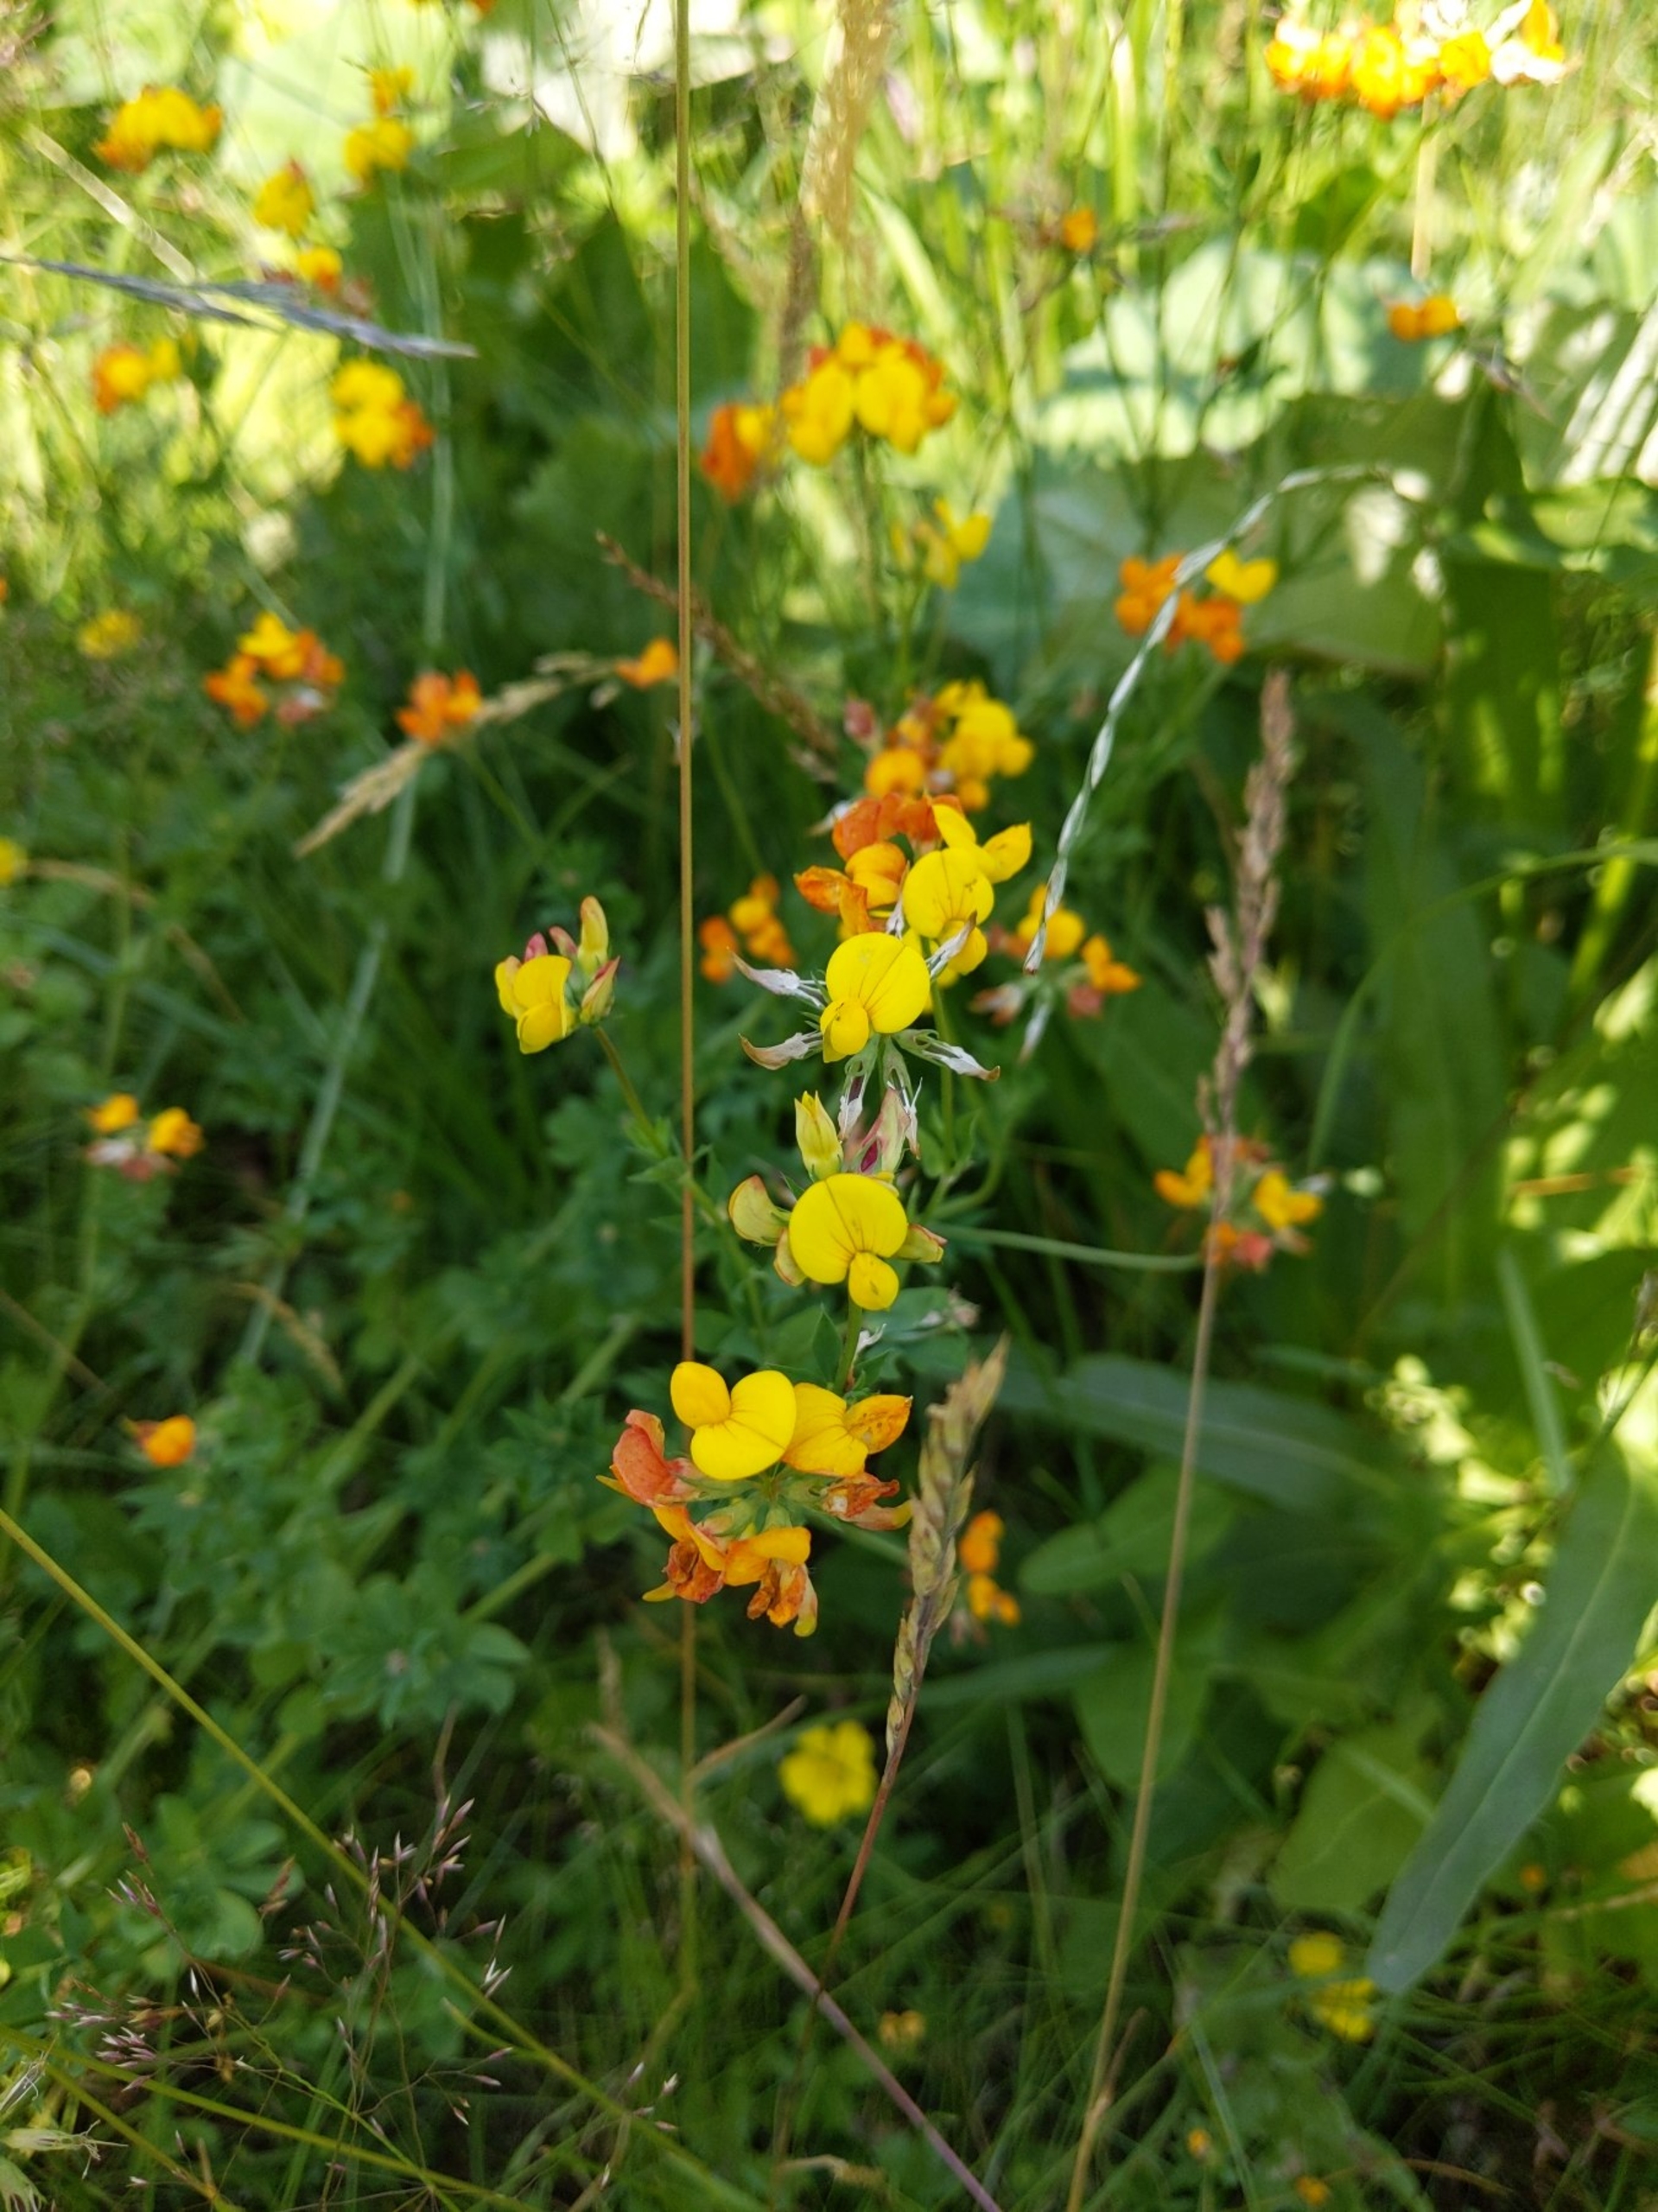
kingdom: Plantae
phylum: Tracheophyta
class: Magnoliopsida
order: Fabales
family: Fabaceae
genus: Lotus
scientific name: Lotus corniculatus
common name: Almindelig kællingetand
